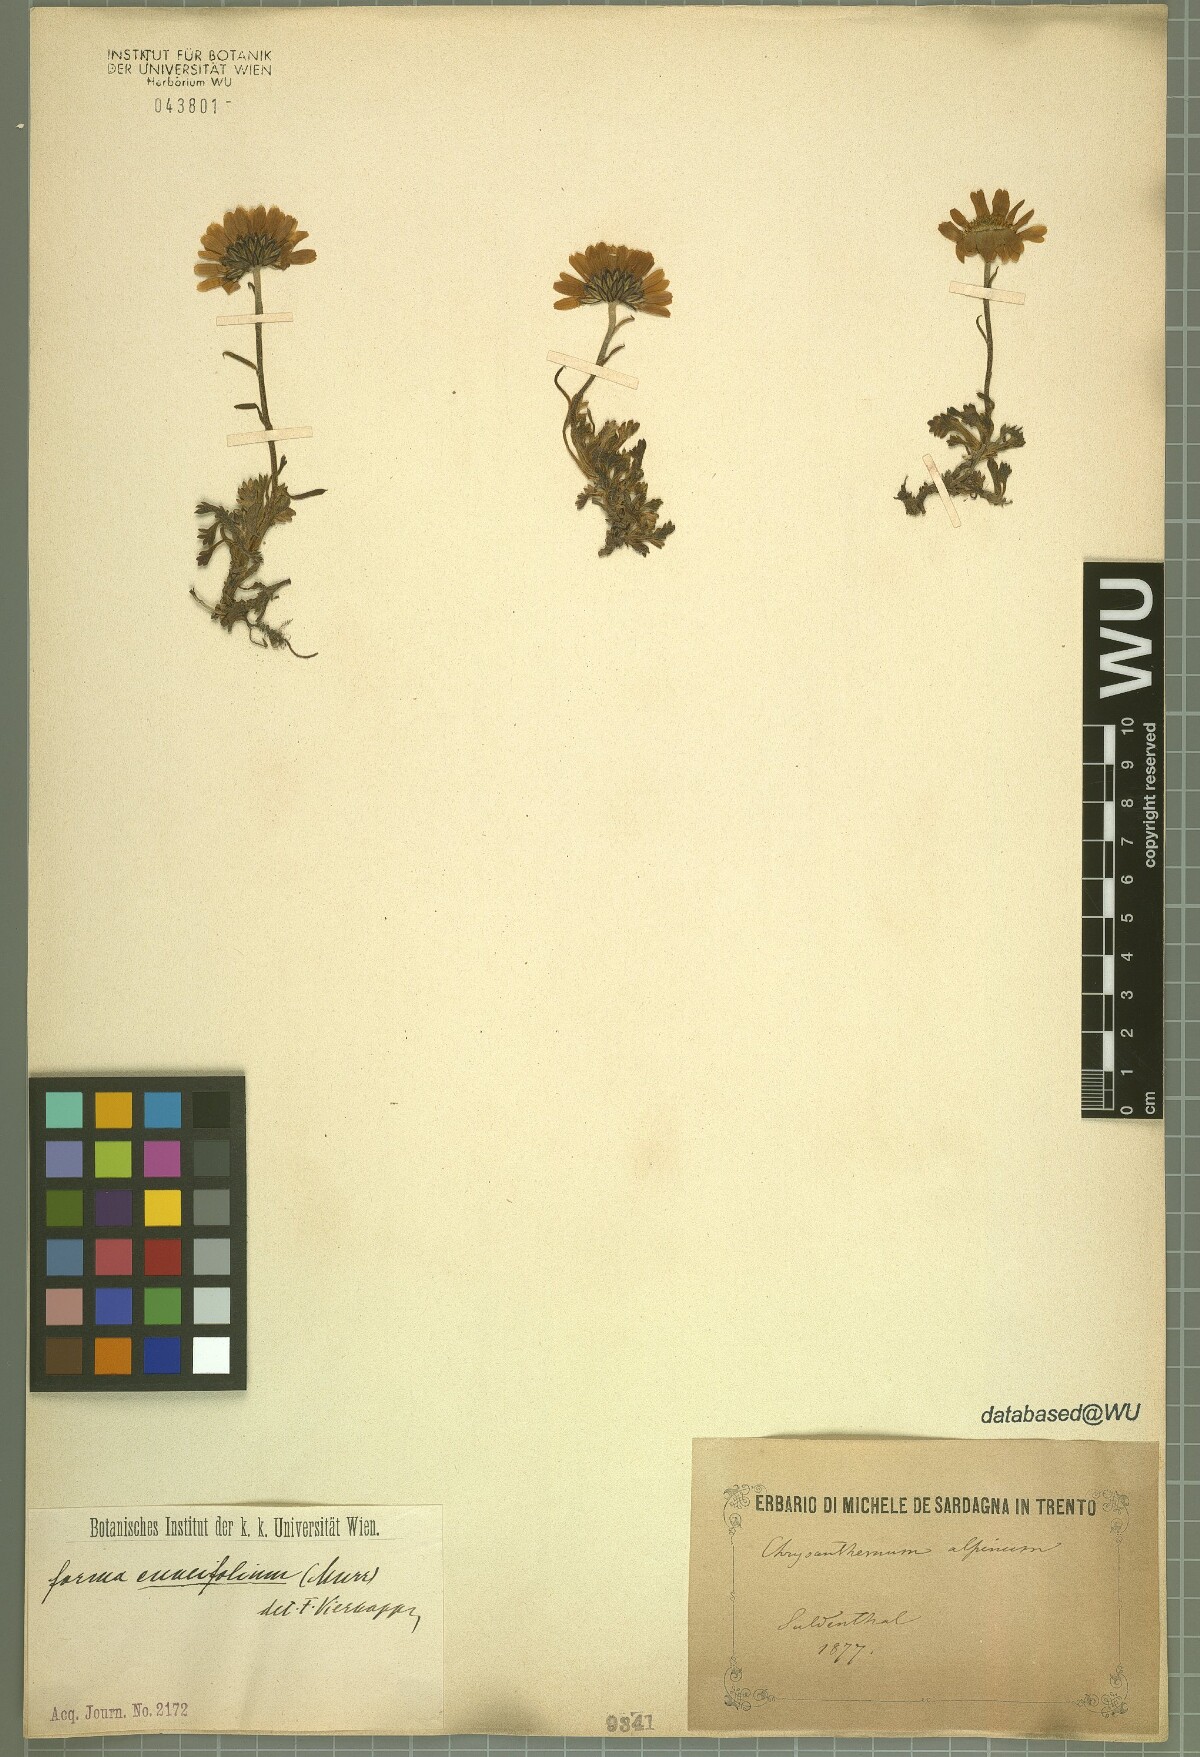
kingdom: Plantae
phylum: Tracheophyta
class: Magnoliopsida
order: Asterales
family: Asteraceae
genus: Leucanthemopsis
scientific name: Leucanthemopsis alpina
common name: Alpine moon daisy
